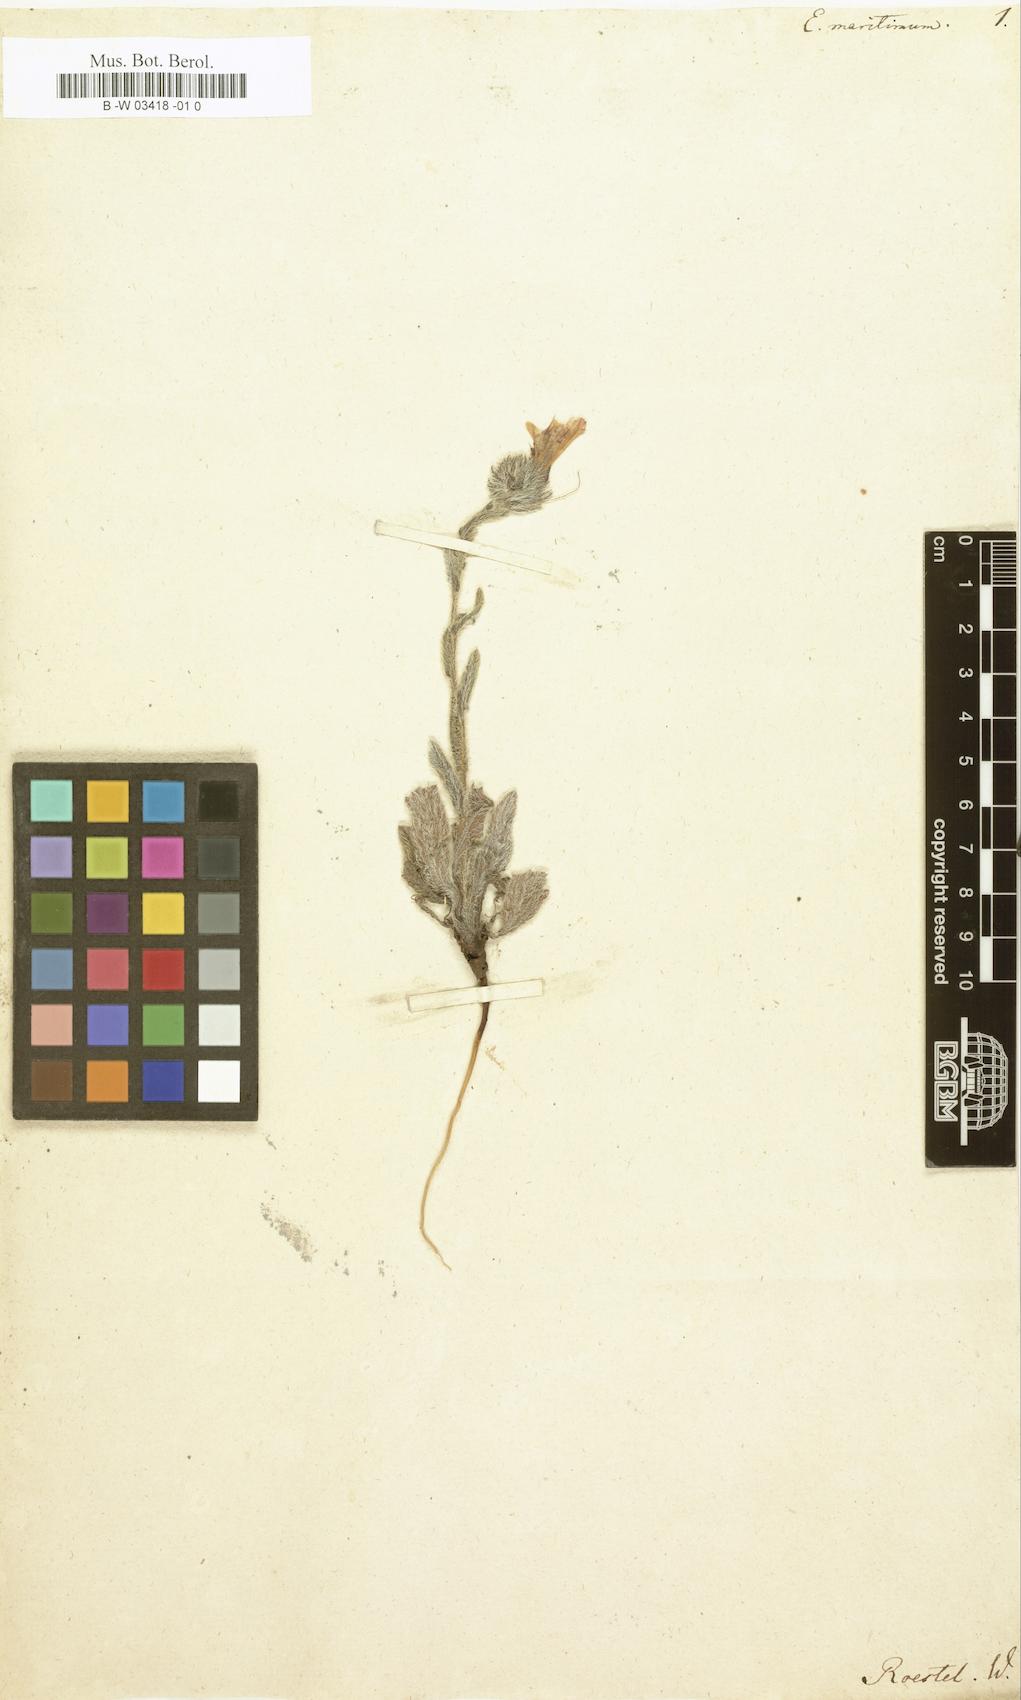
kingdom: Plantae
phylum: Tracheophyta
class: Magnoliopsida
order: Boraginales
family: Boraginaceae
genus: Echium
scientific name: Echium plantagineum
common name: Purple viper's-bugloss
